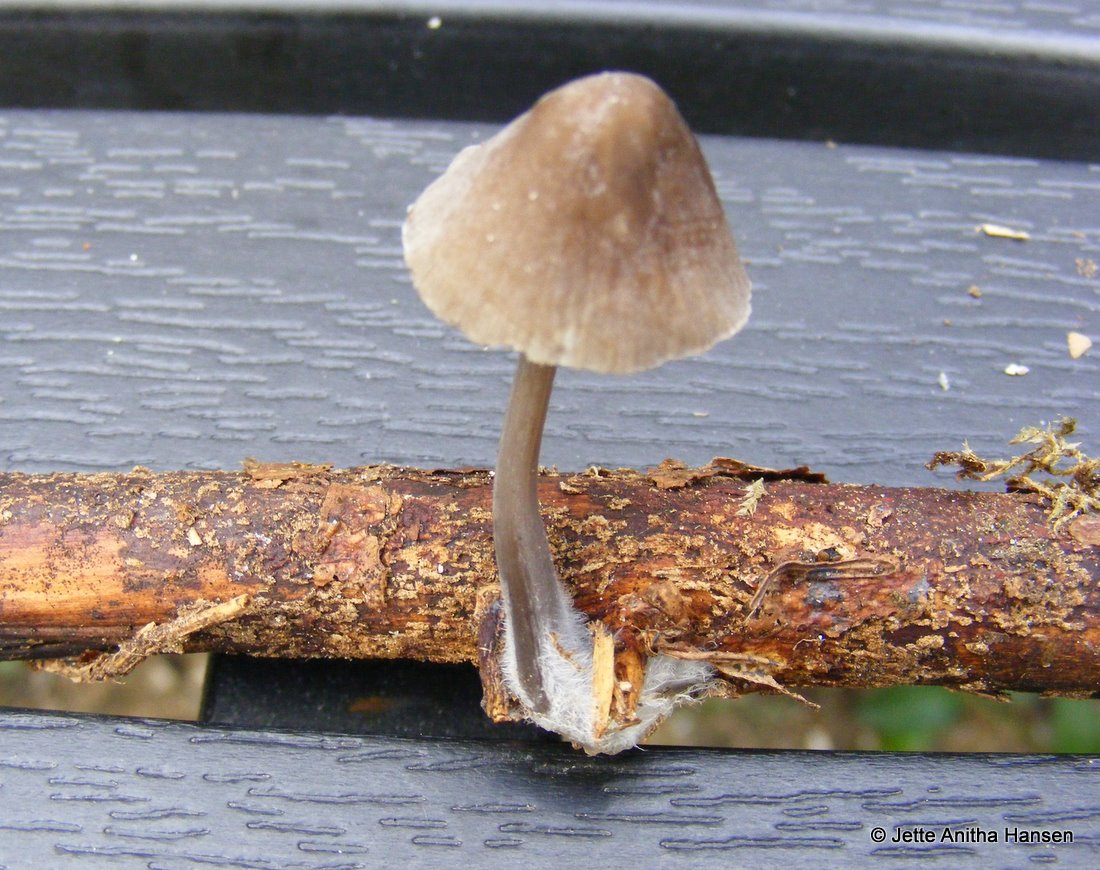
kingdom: Fungi
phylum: Basidiomycota
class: Agaricomycetes
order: Agaricales
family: Mycenaceae
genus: Mycena
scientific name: Mycena abramsii
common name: sommer-huesvamp
